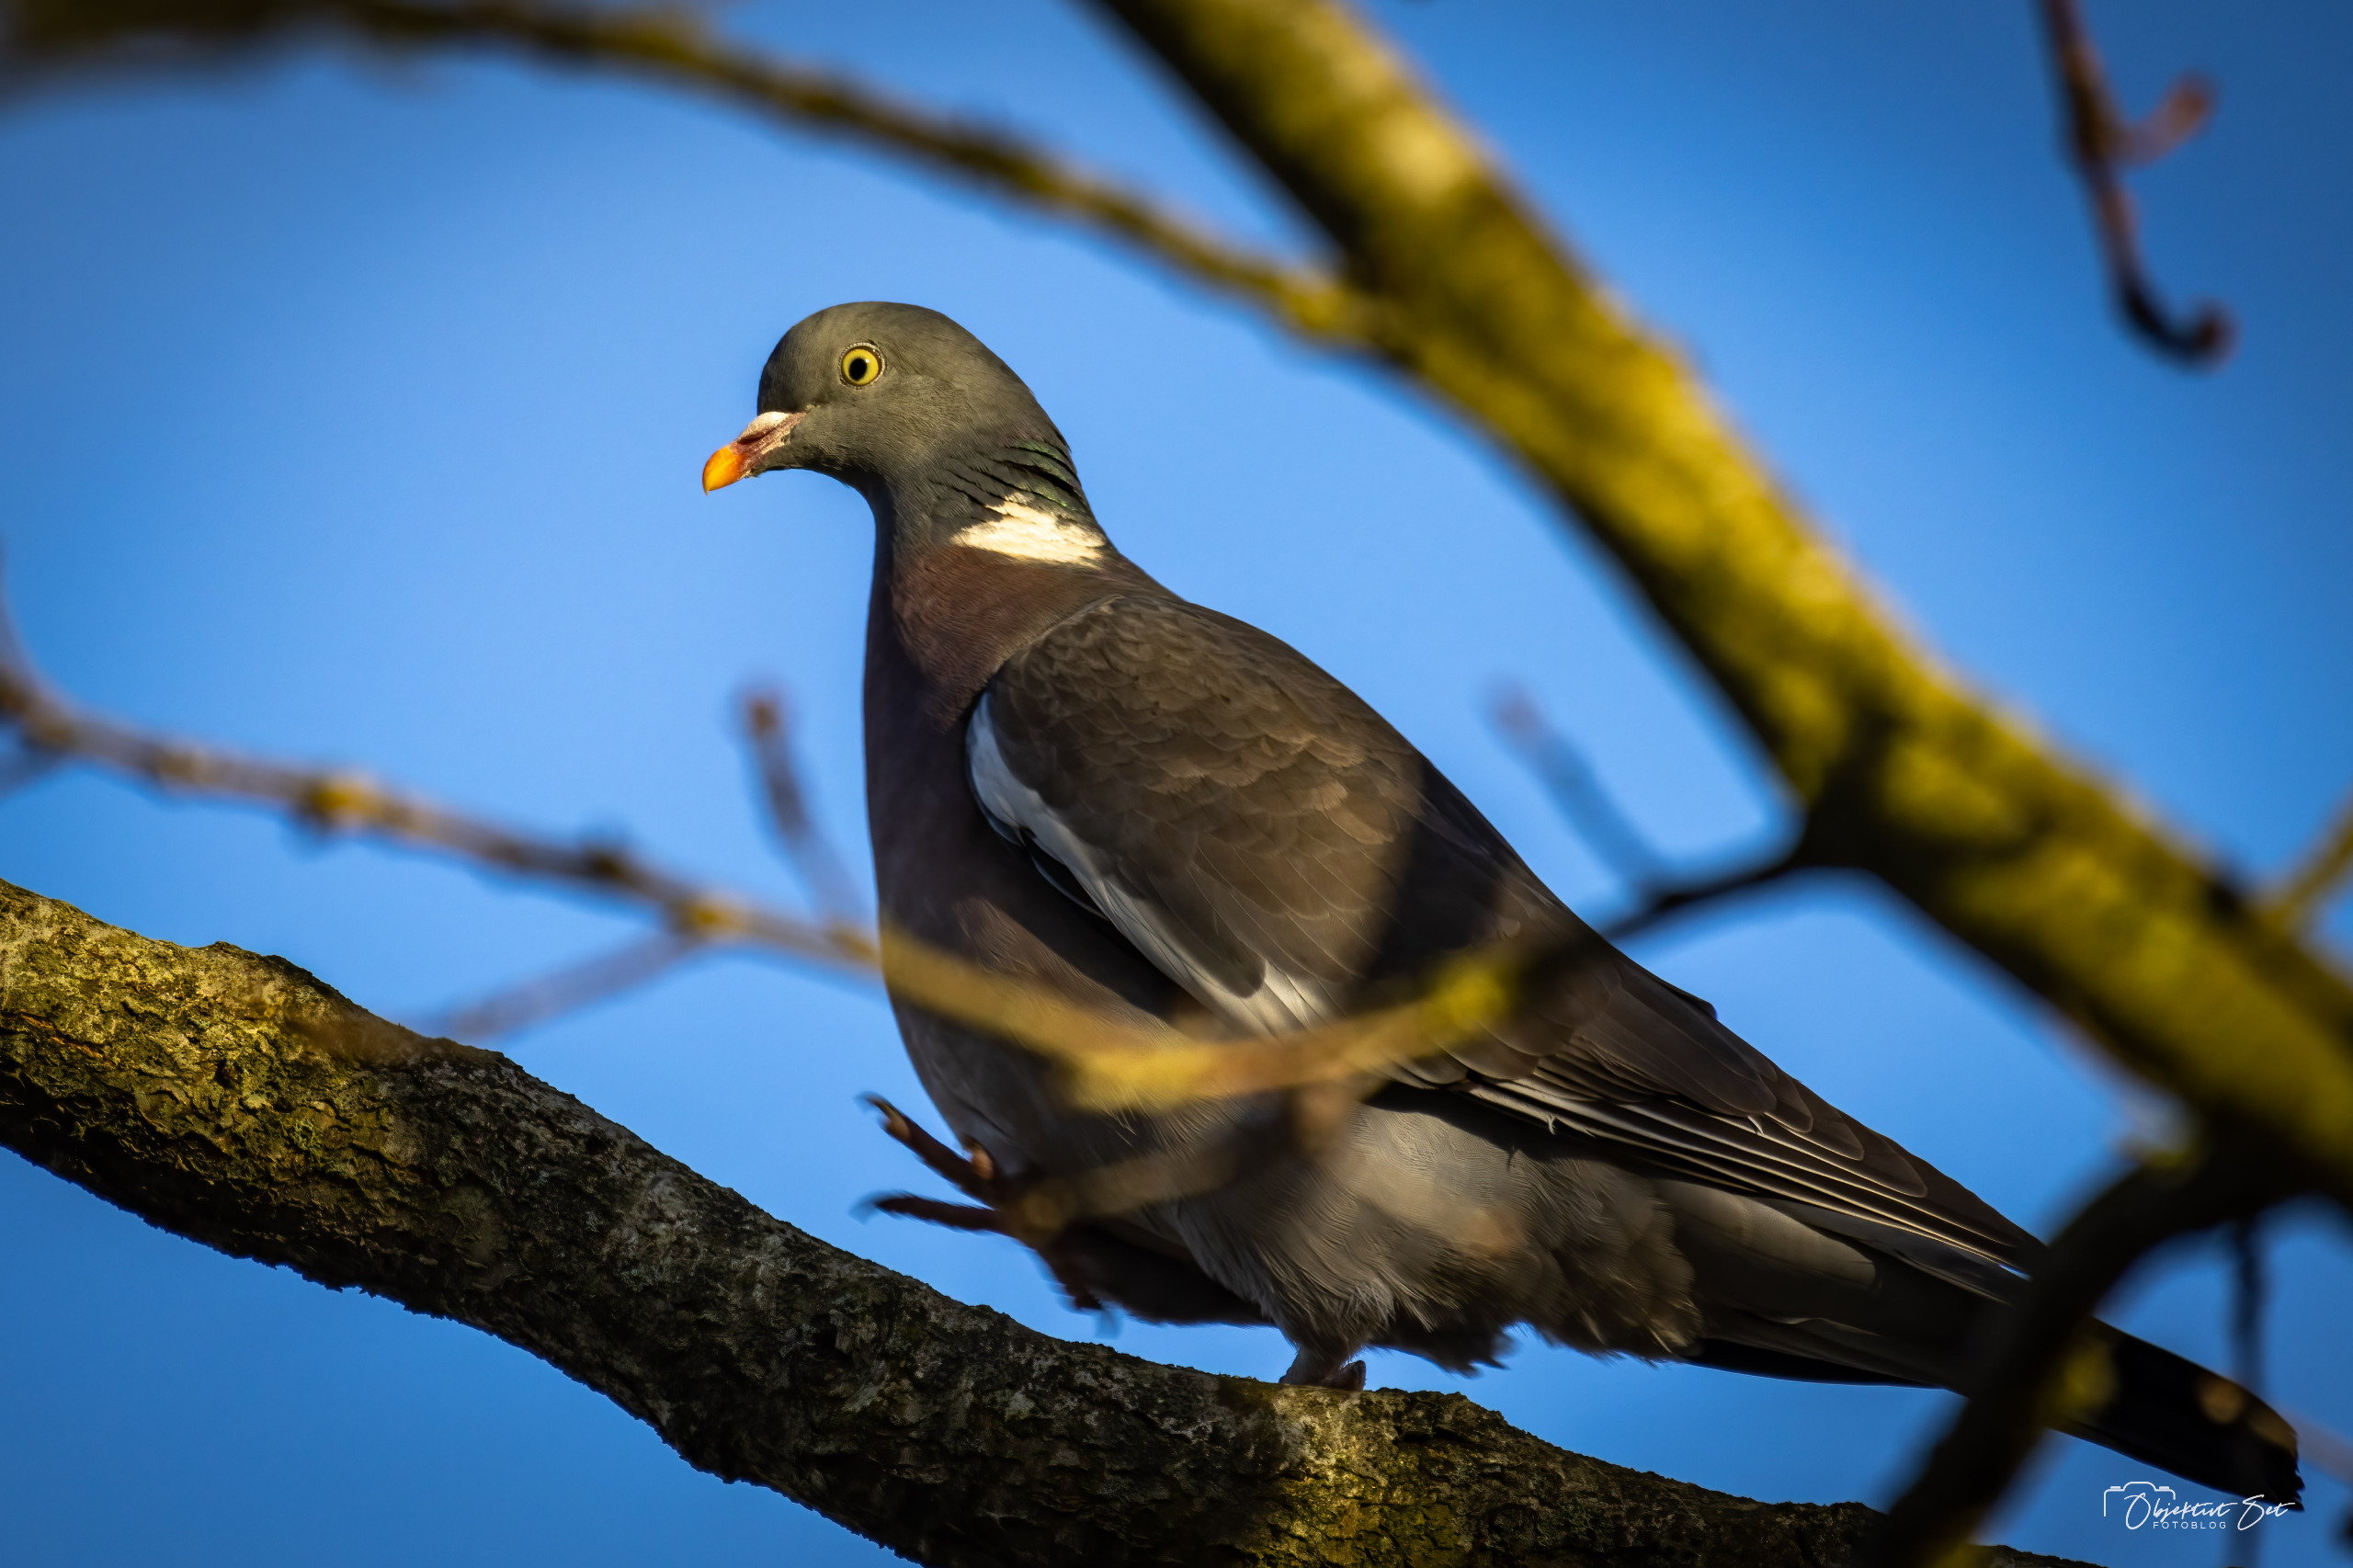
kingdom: Animalia
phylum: Chordata
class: Aves
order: Columbiformes
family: Columbidae
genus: Columba
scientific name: Columba palumbus
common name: Ringdue
